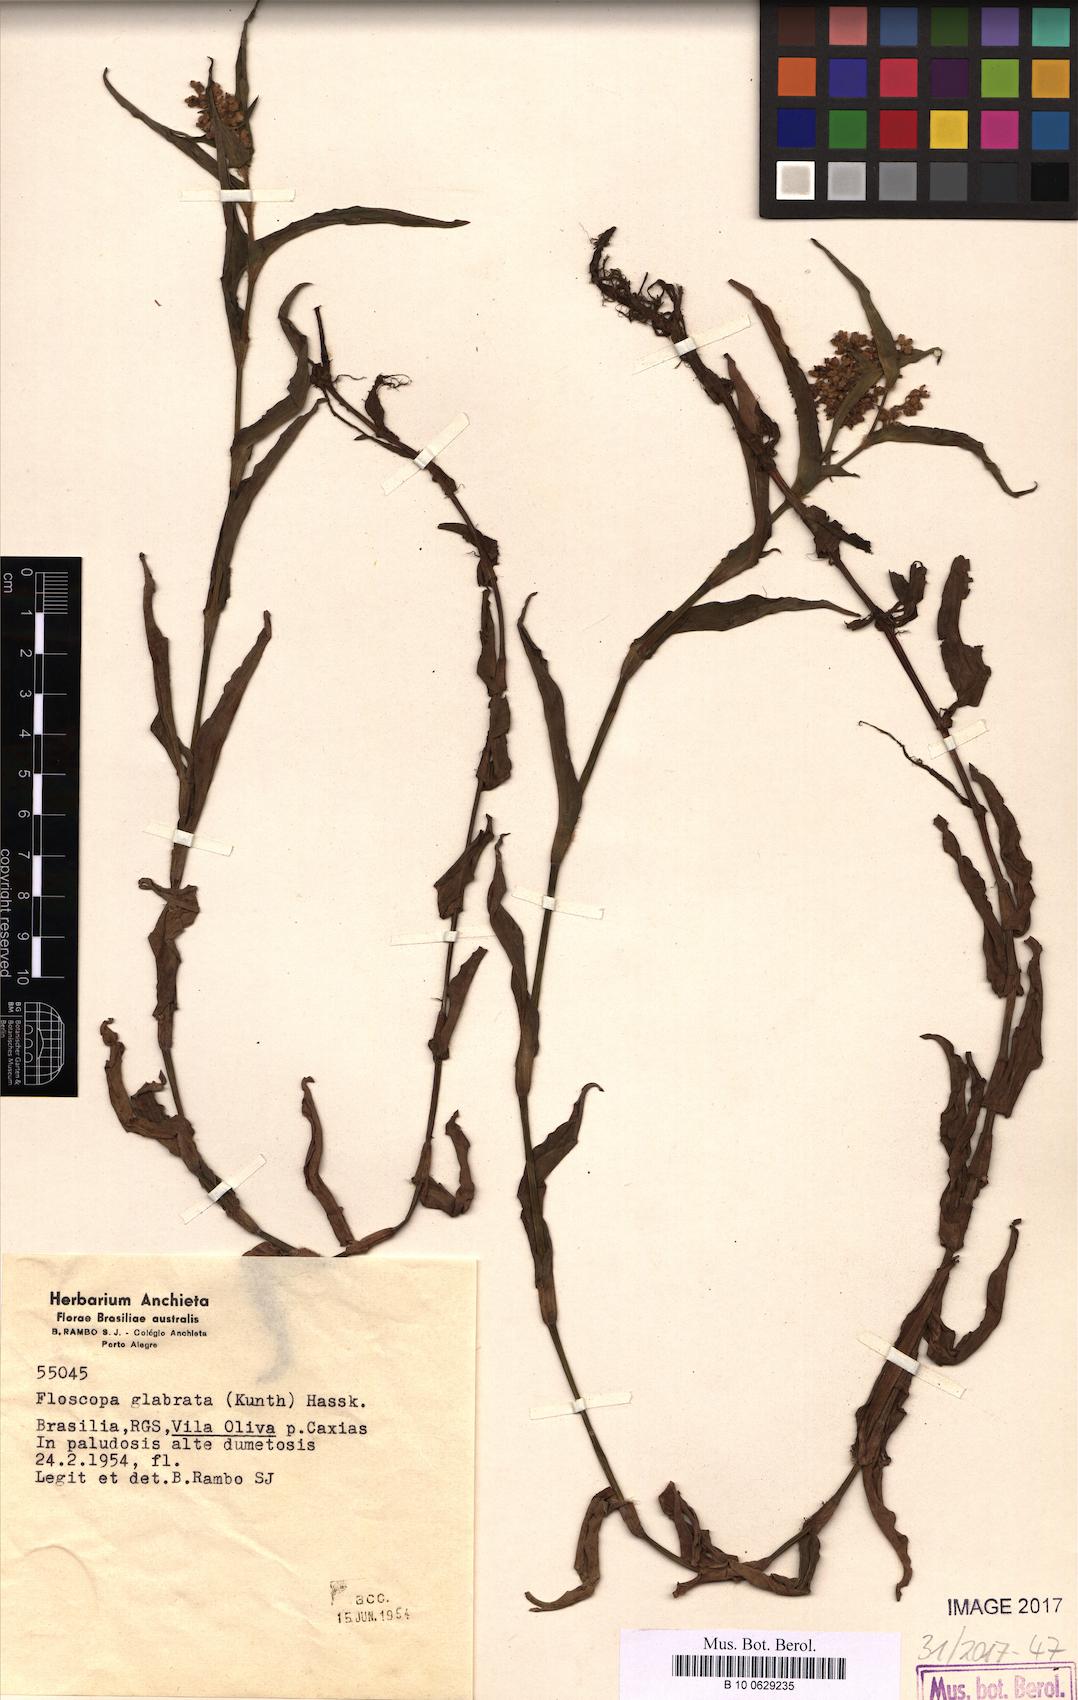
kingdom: Plantae
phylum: Tracheophyta
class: Liliopsida
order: Commelinales
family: Commelinaceae
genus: Floscopa
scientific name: Floscopa glabrata
